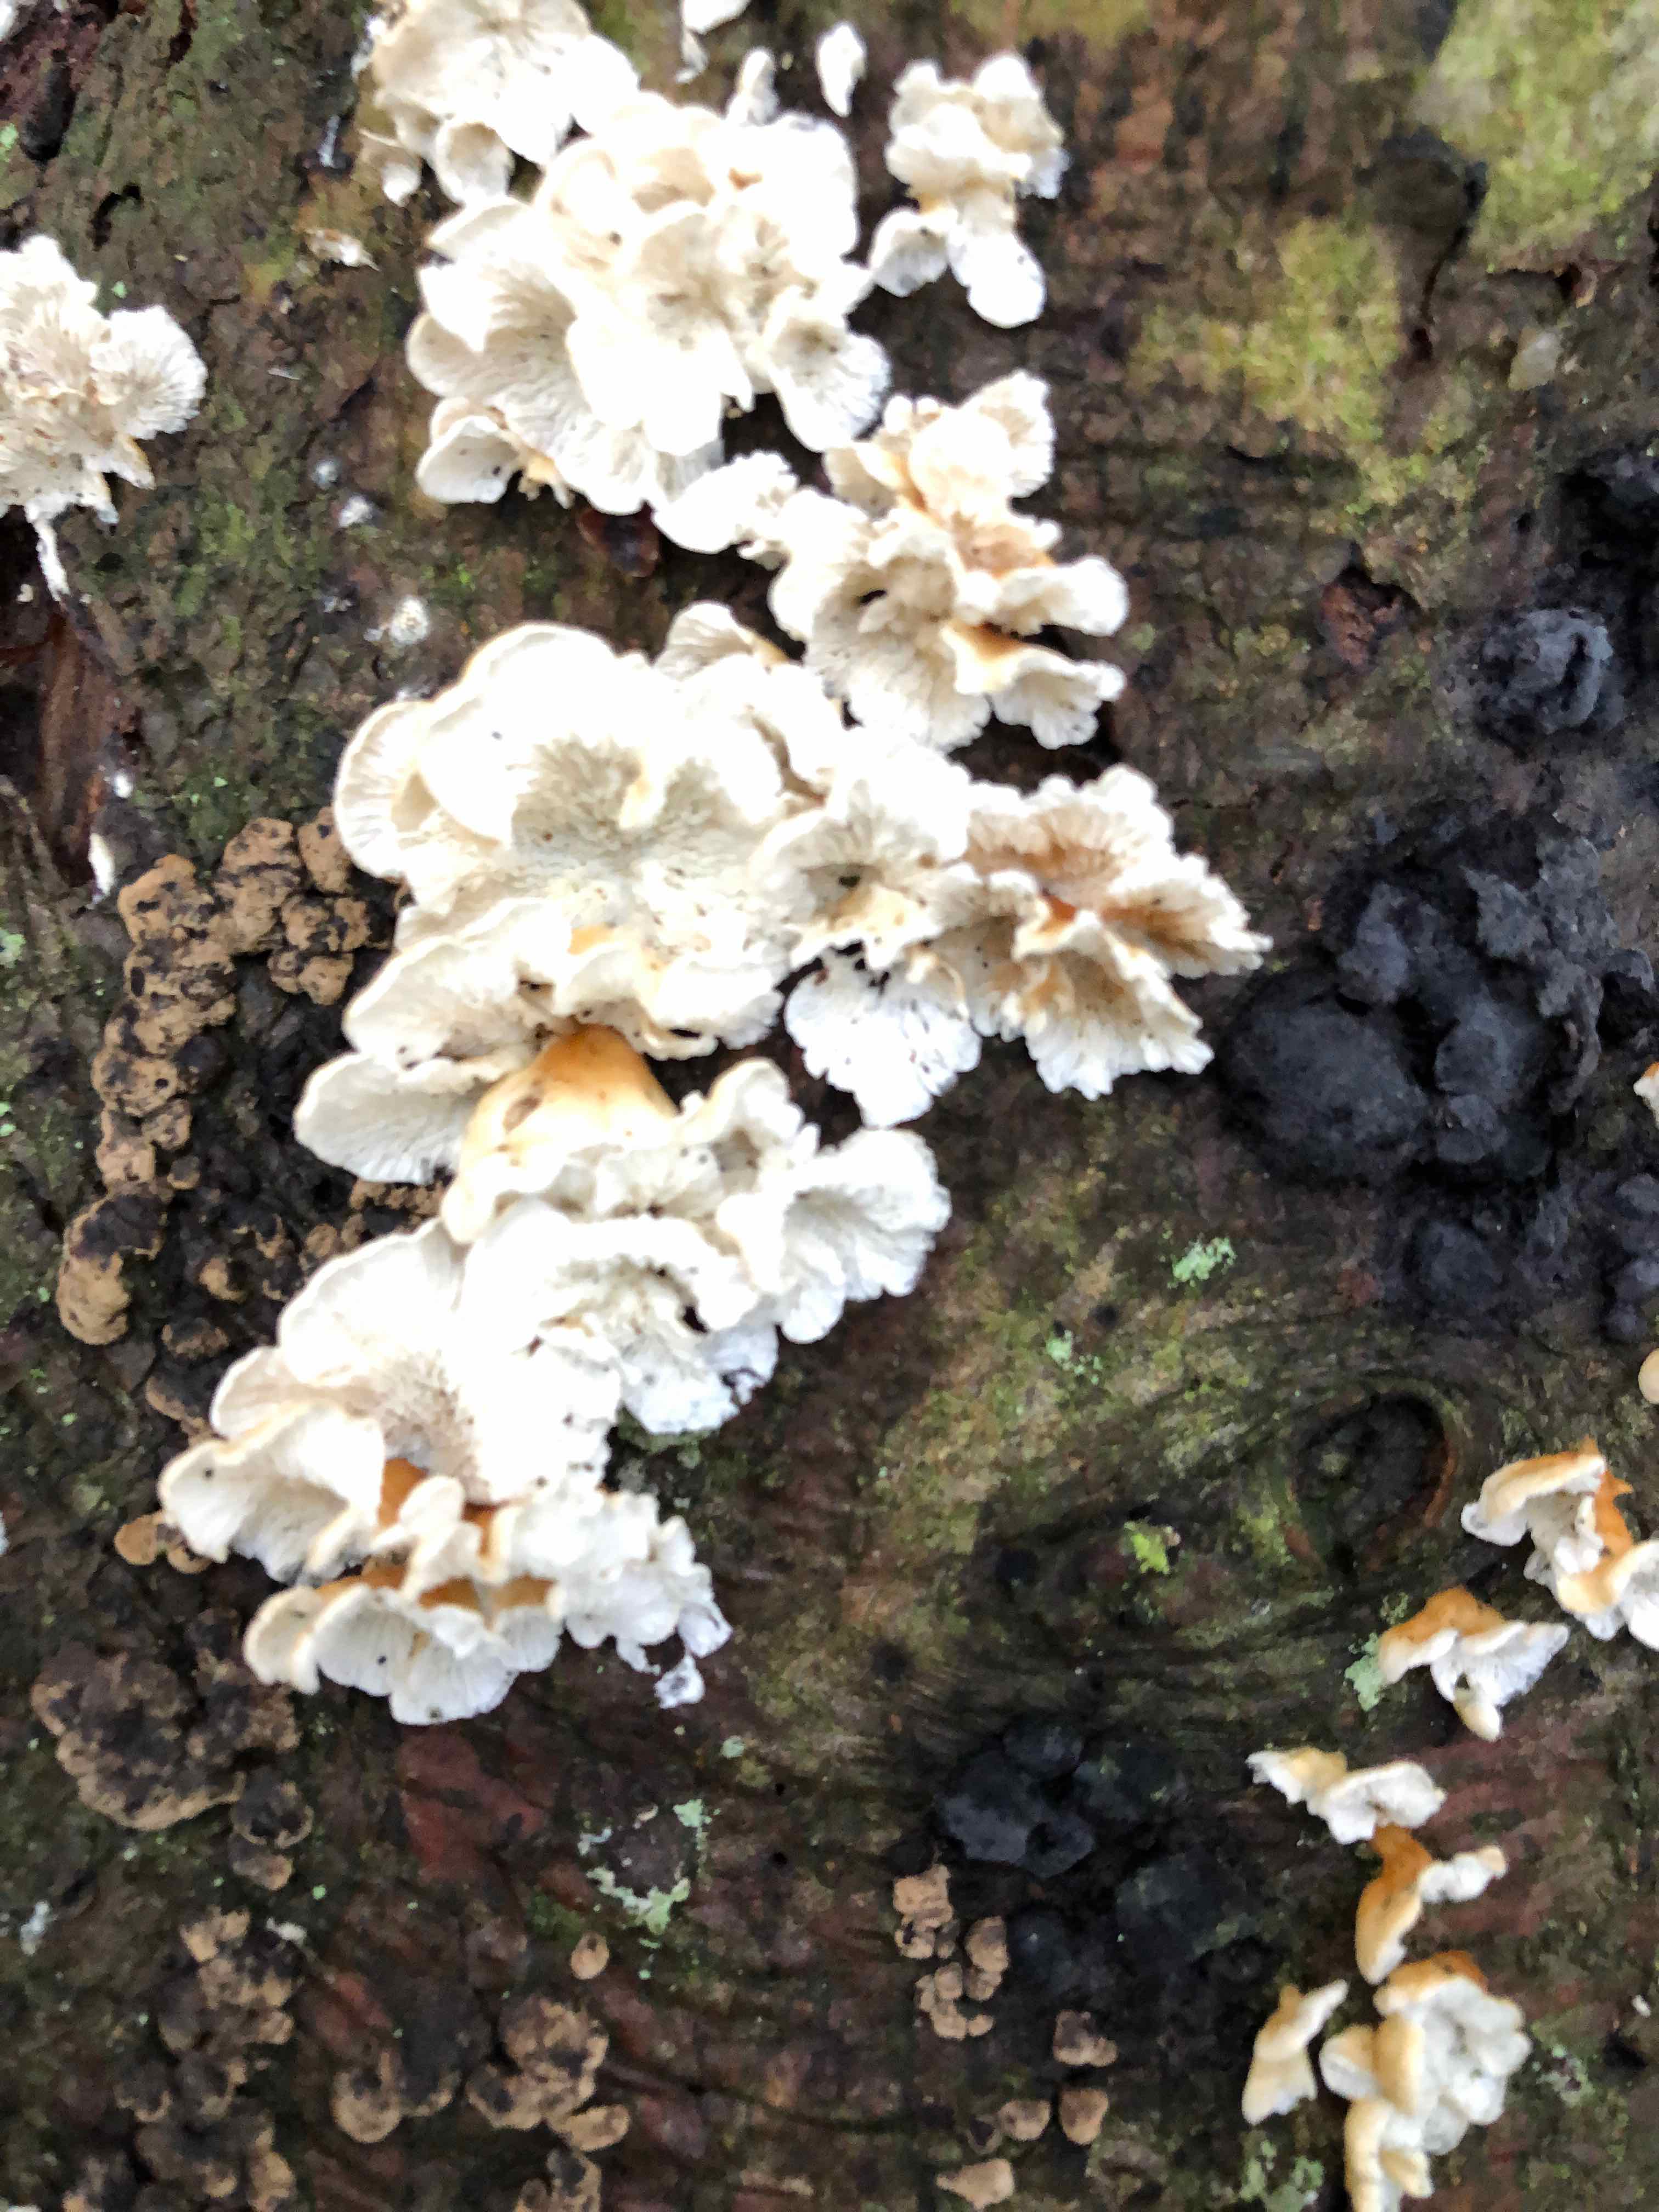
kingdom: Fungi
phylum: Basidiomycota
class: Agaricomycetes
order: Amylocorticiales
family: Amylocorticiaceae
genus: Plicaturopsis
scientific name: Plicaturopsis crispa
